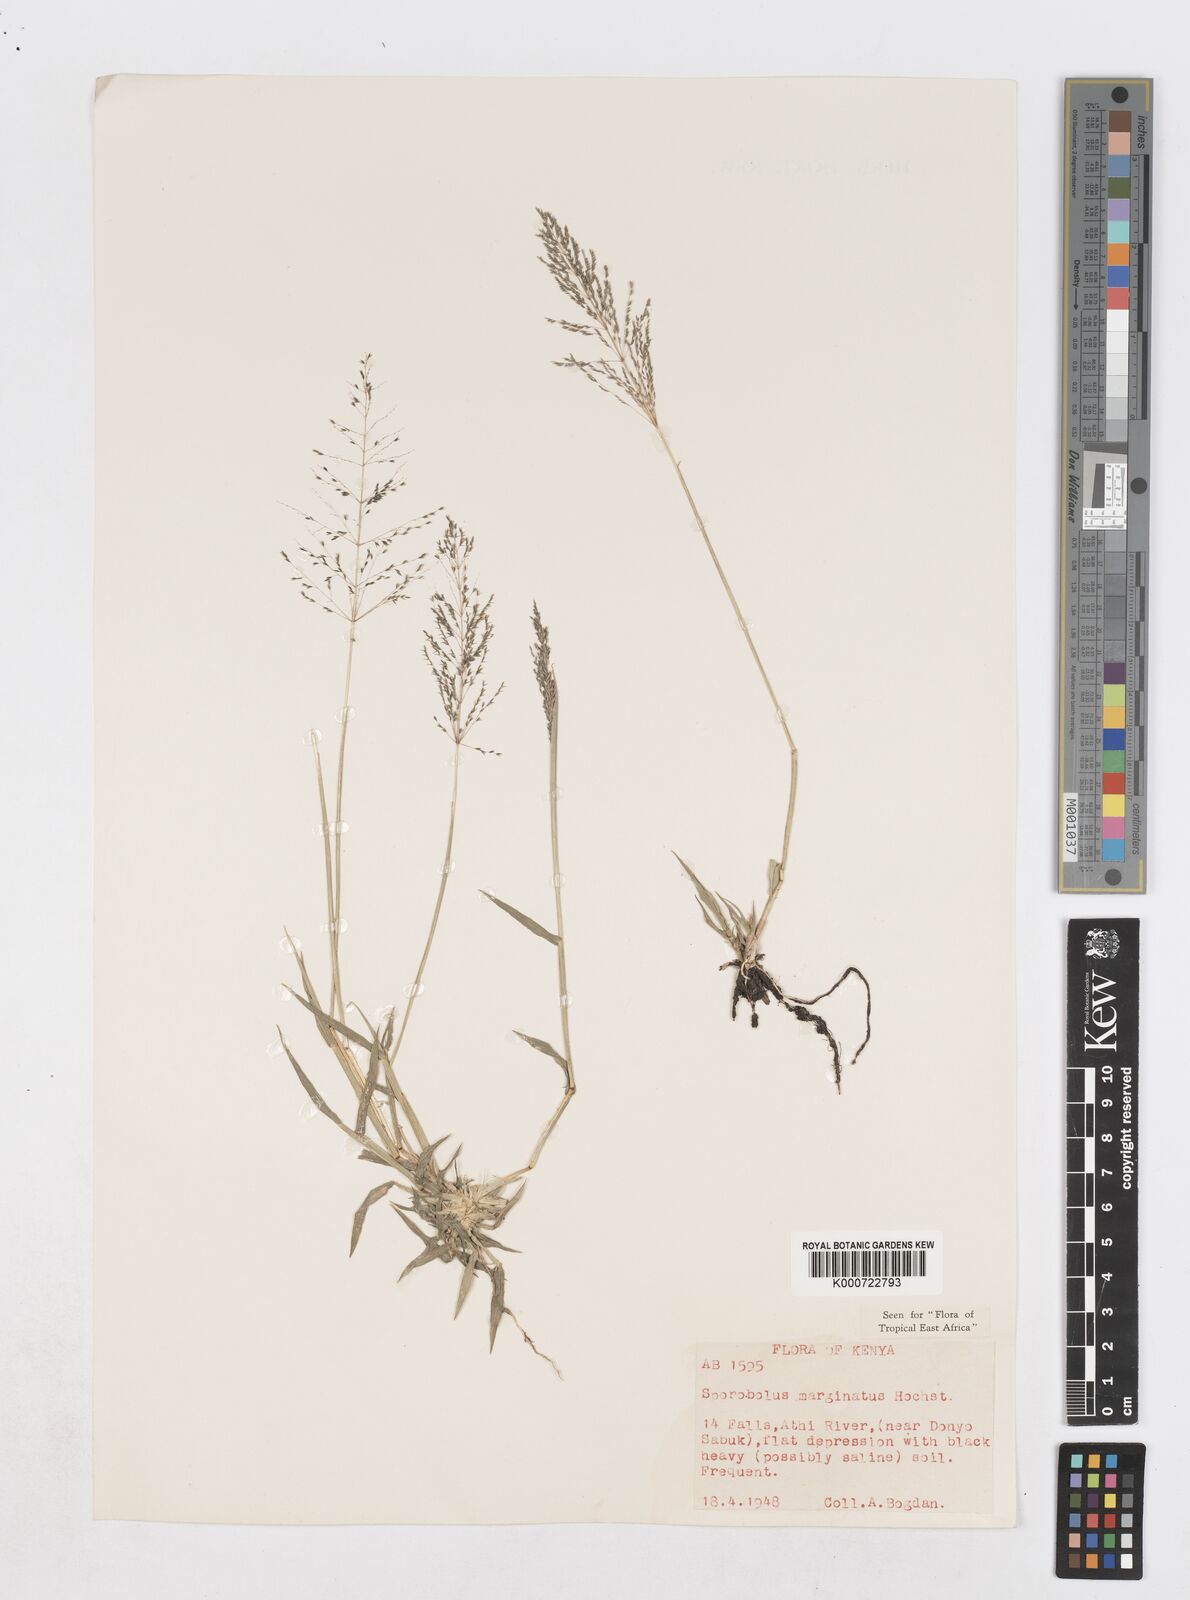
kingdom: Plantae
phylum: Tracheophyta
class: Liliopsida
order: Poales
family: Poaceae
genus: Sporobolus
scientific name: Sporobolus ioclados
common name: Pan dropseed
